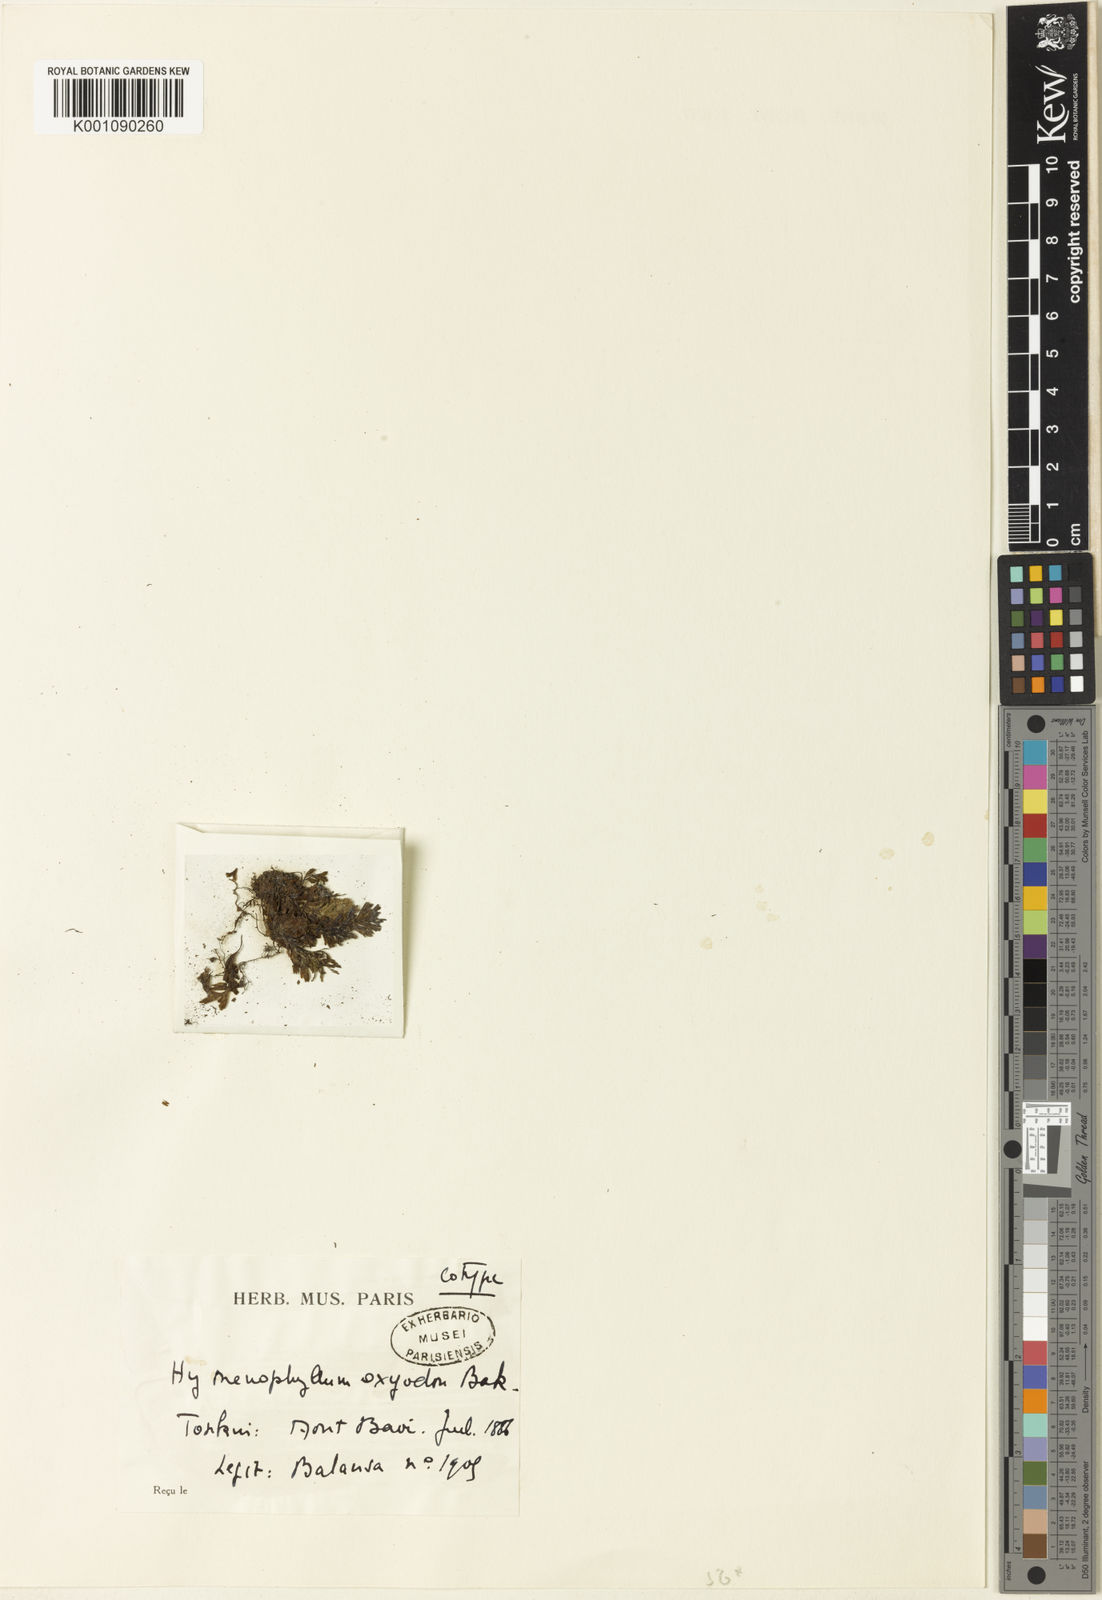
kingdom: Plantae
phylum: Tracheophyta
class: Polypodiopsida
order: Hymenophyllales
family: Hymenophyllaceae
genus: Hymenophyllum
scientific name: Hymenophyllum barbatum
